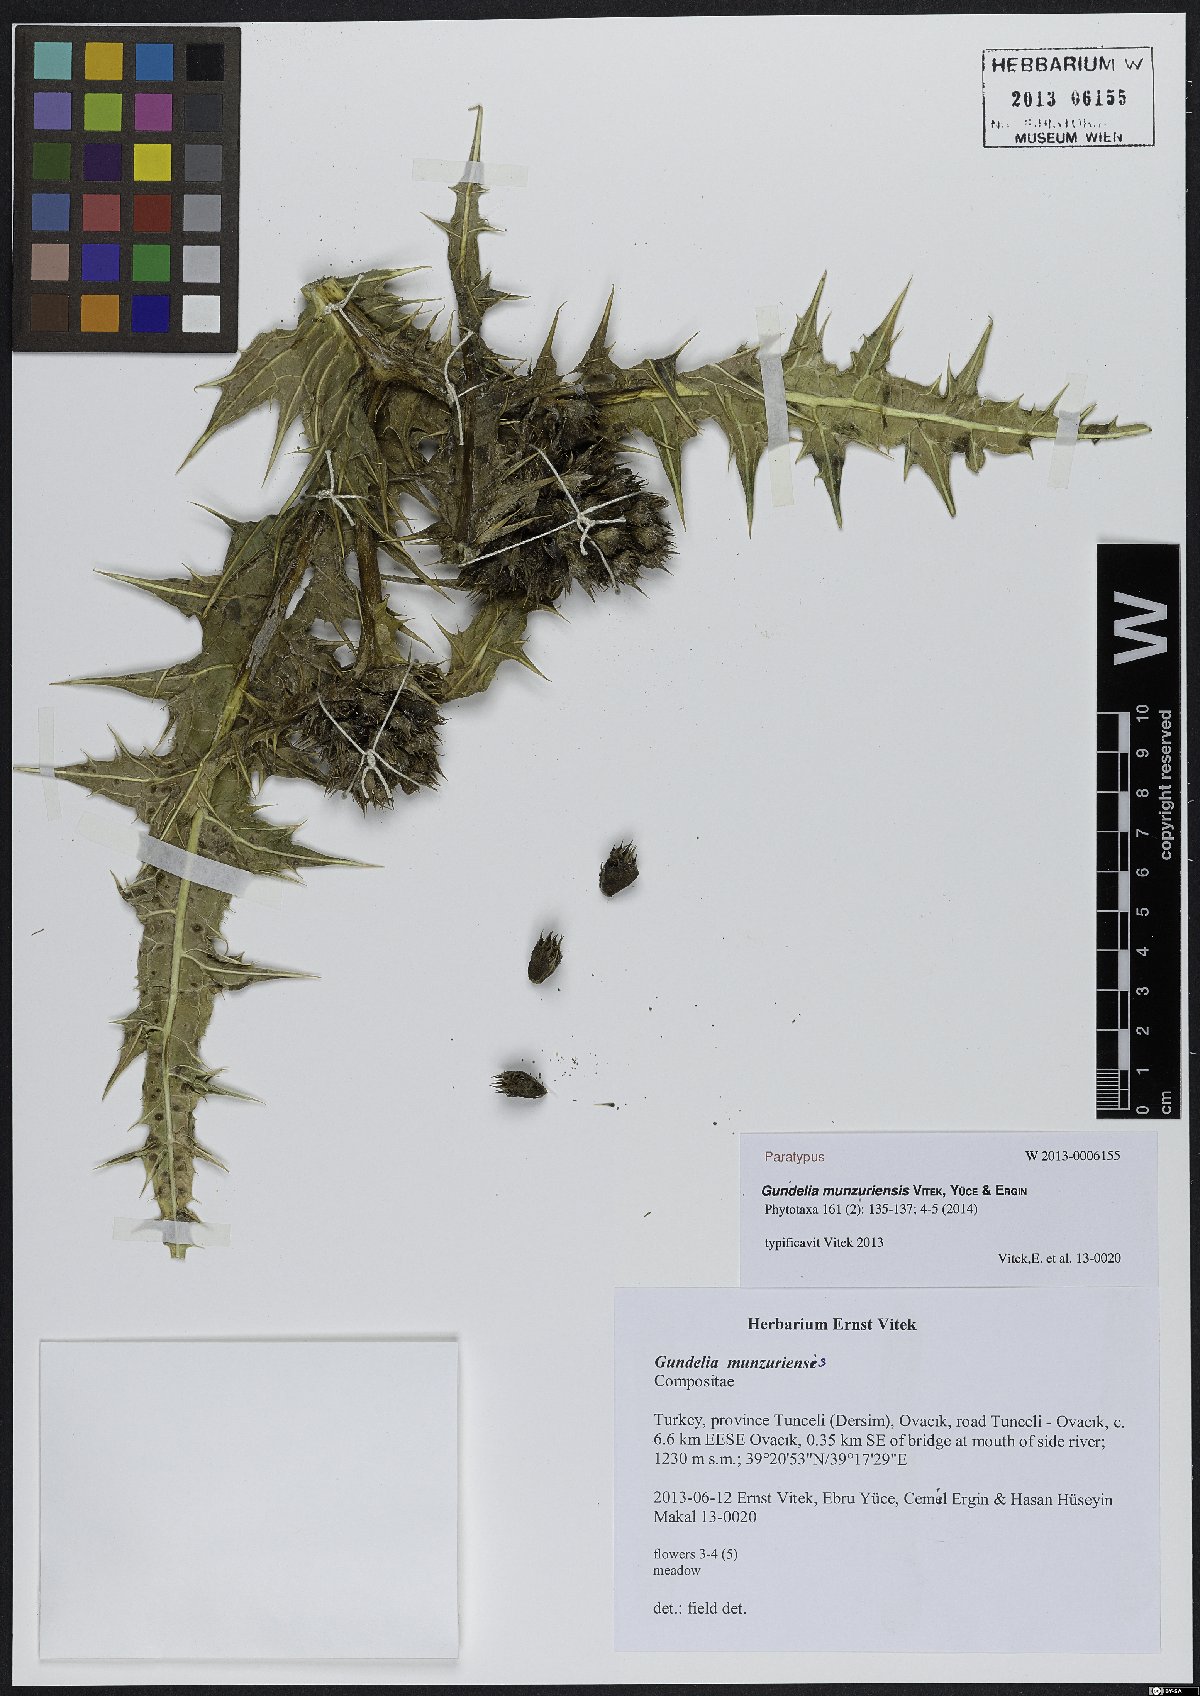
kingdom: Plantae
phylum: Tracheophyta
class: Magnoliopsida
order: Asterales
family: Asteraceae
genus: Gundelia
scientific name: Gundelia munzuriensis
